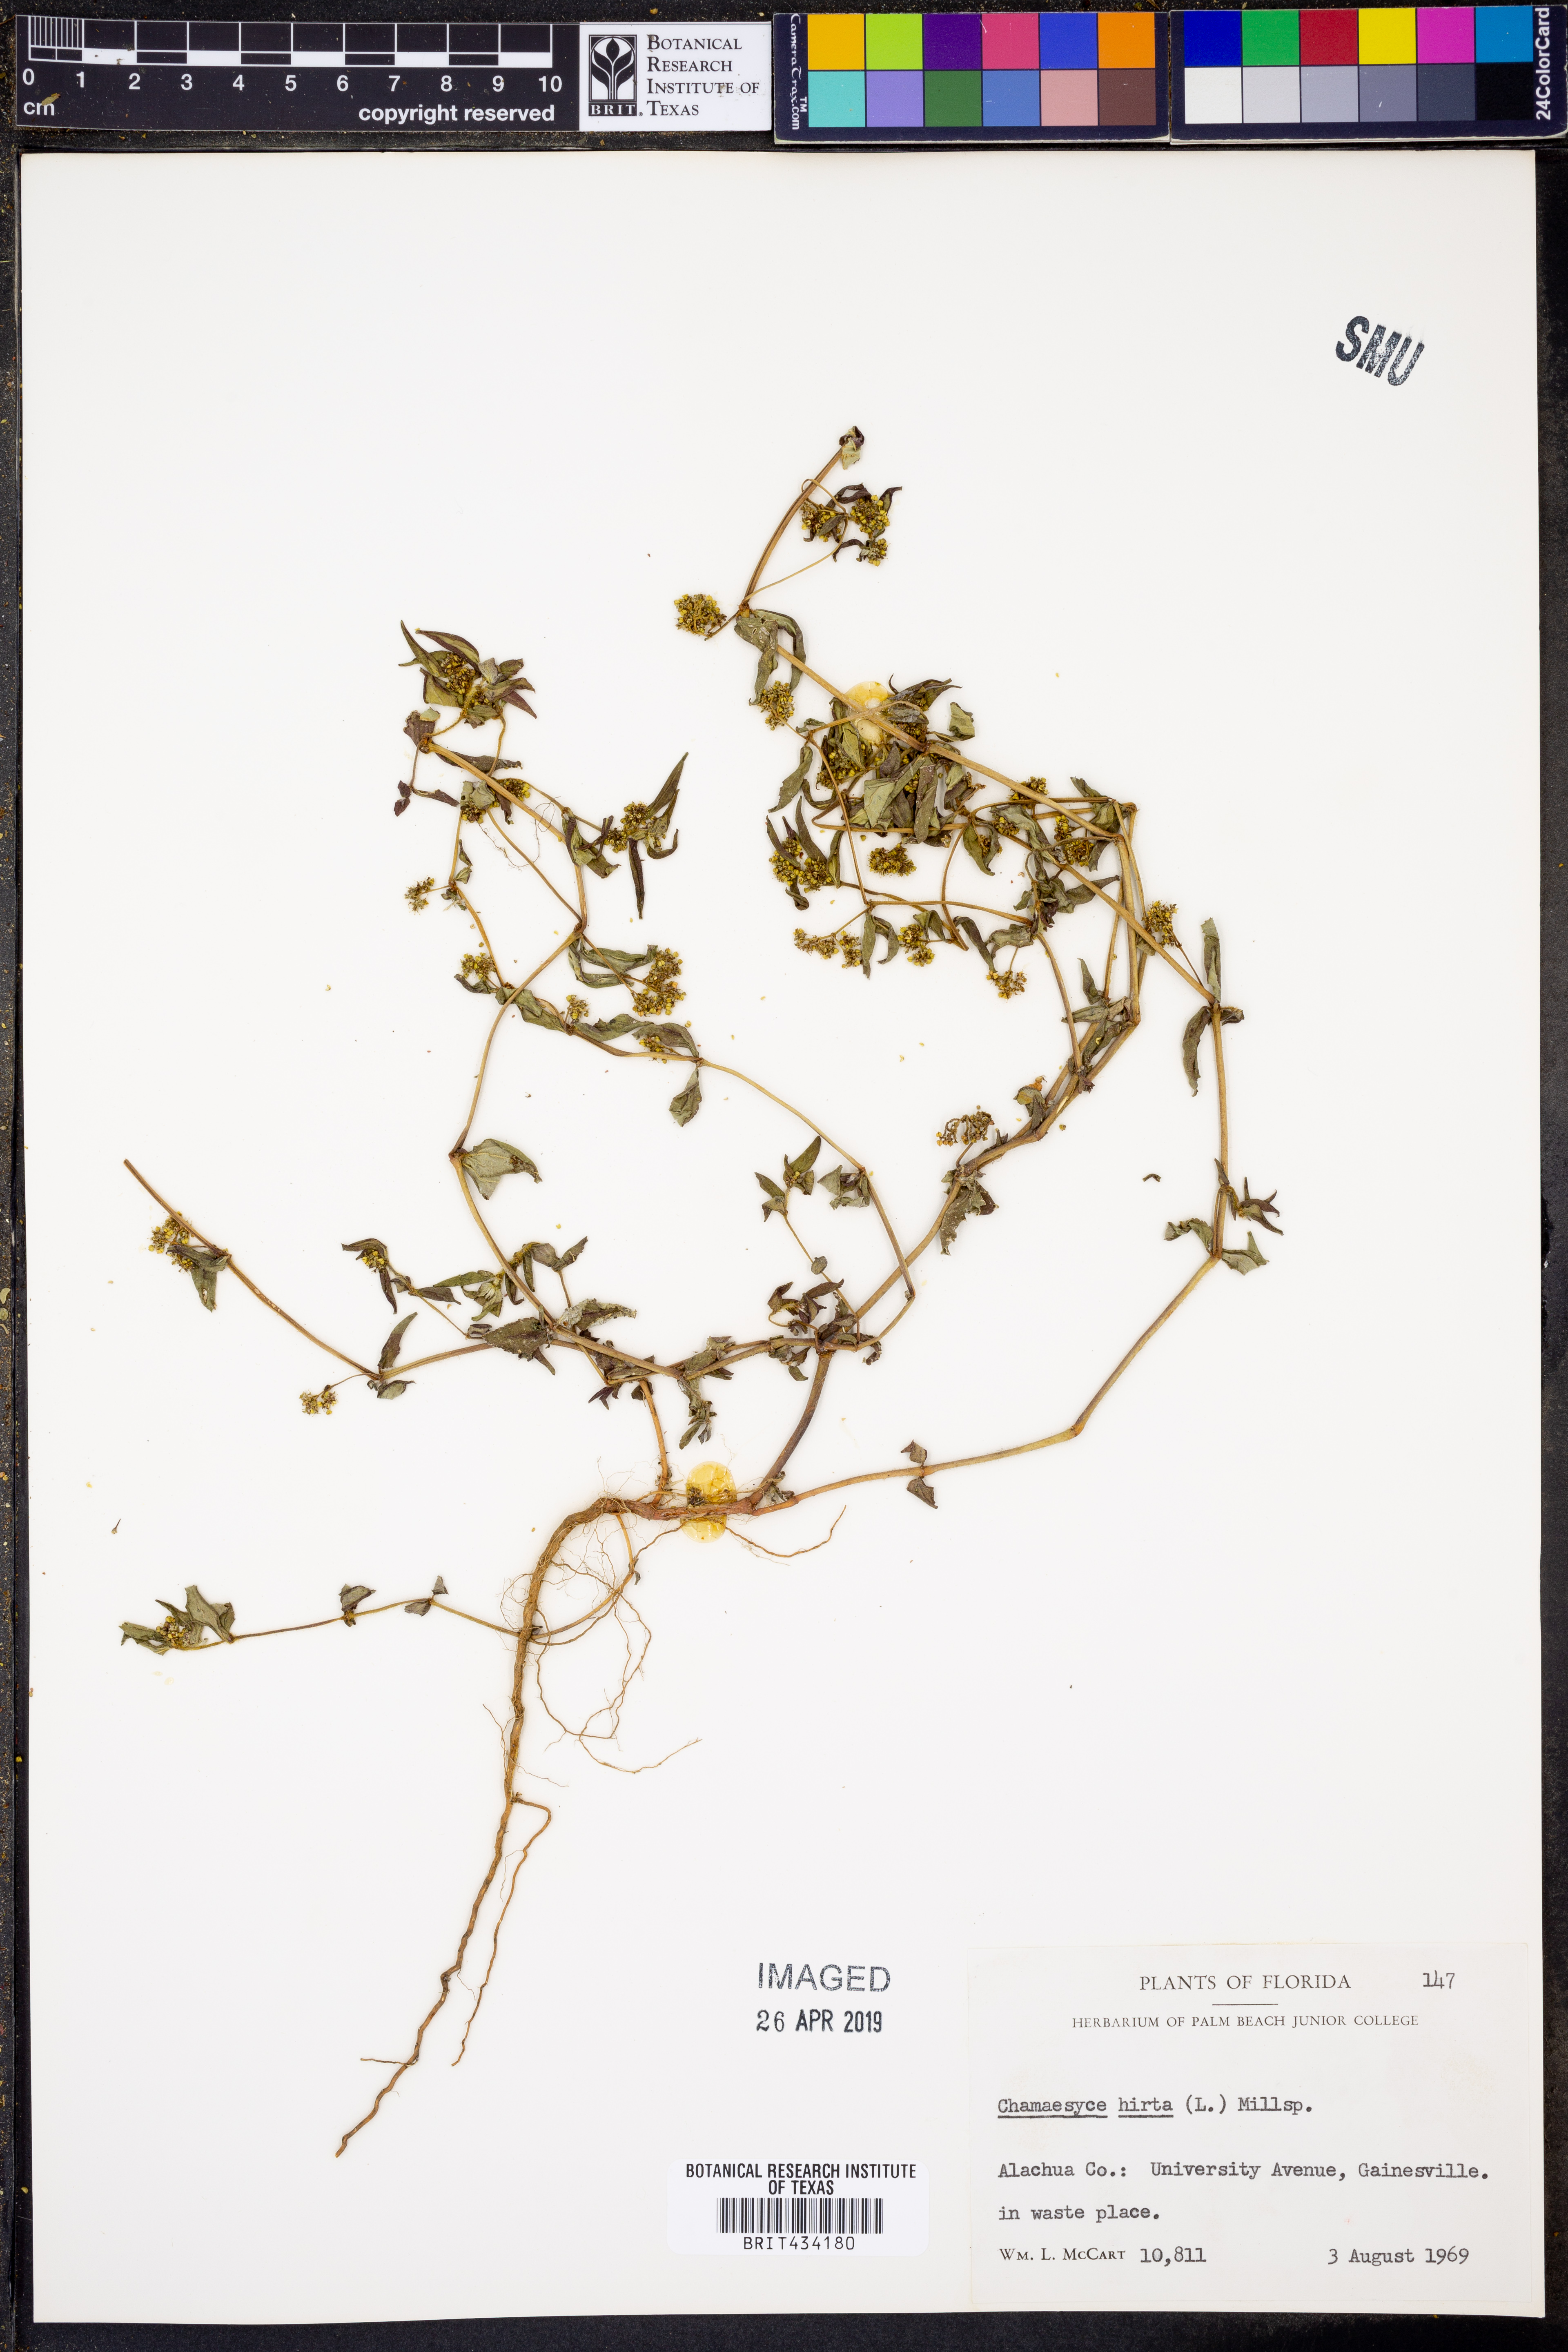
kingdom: Plantae
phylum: Tracheophyta
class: Magnoliopsida
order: Malpighiales
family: Euphorbiaceae
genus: Euphorbia
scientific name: Euphorbia hirta
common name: Pillpod sandmat
